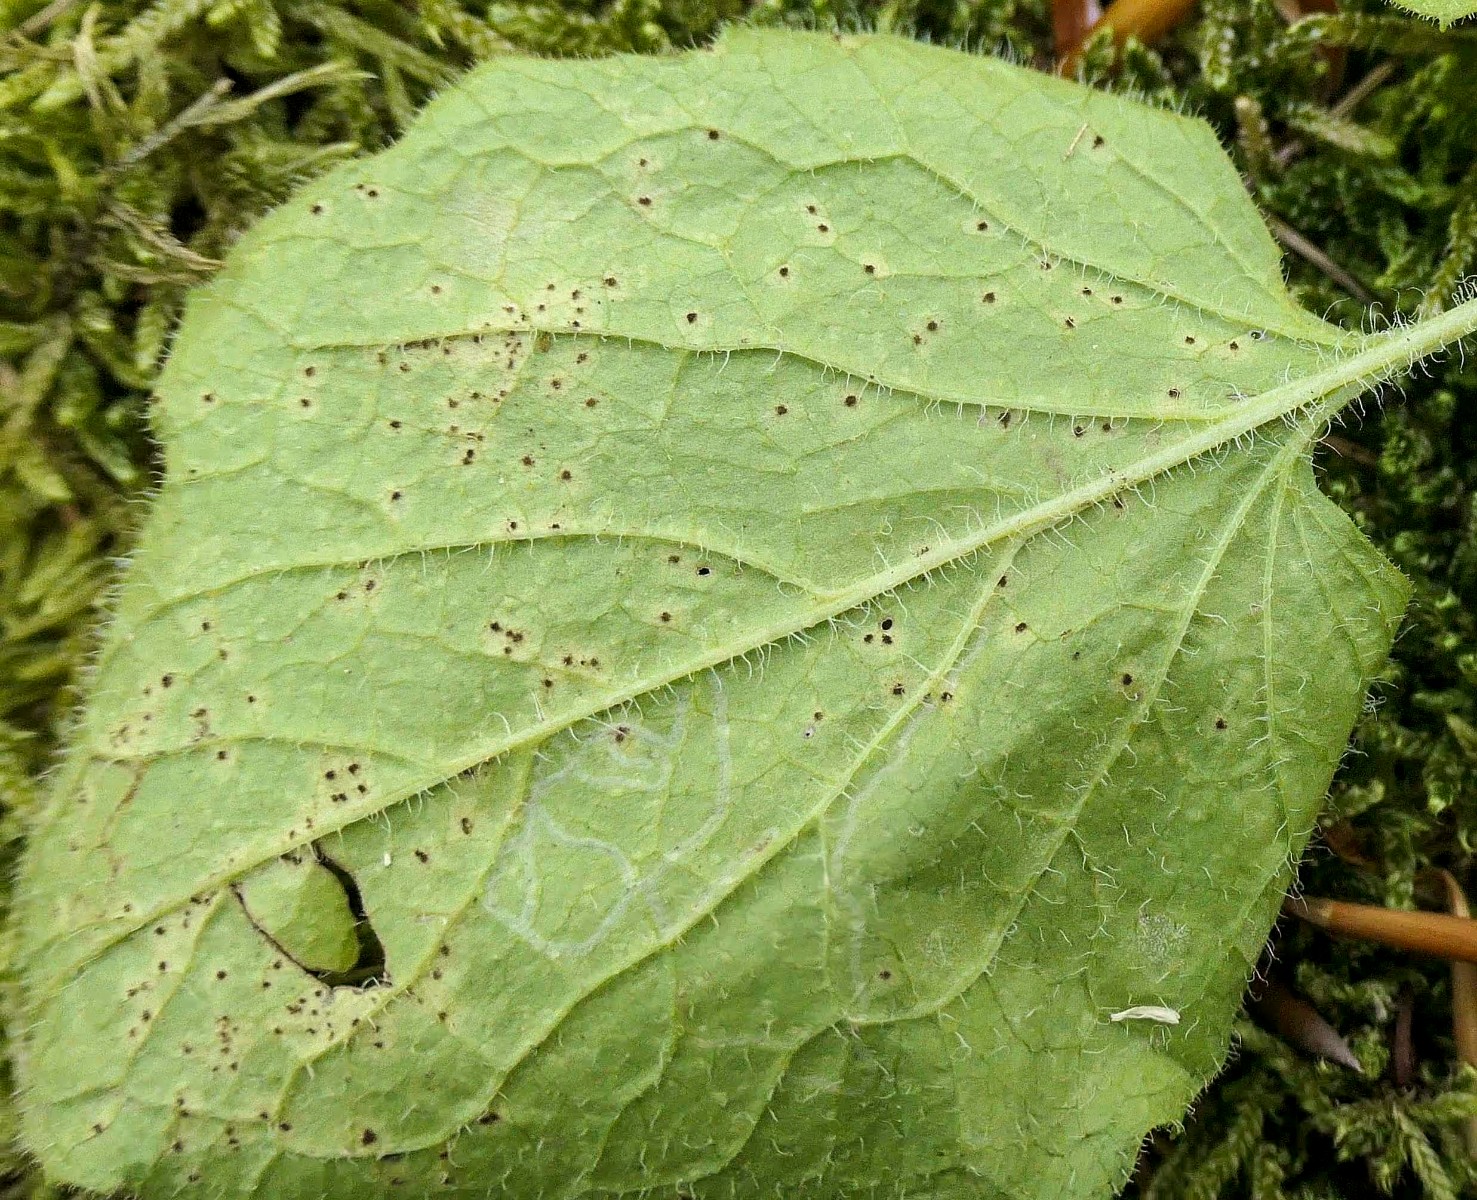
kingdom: Fungi
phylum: Basidiomycota
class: Pucciniomycetes
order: Pucciniales
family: Pucciniaceae
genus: Puccinia
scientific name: Puccinia lapsanae
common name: Nipplewort rust
